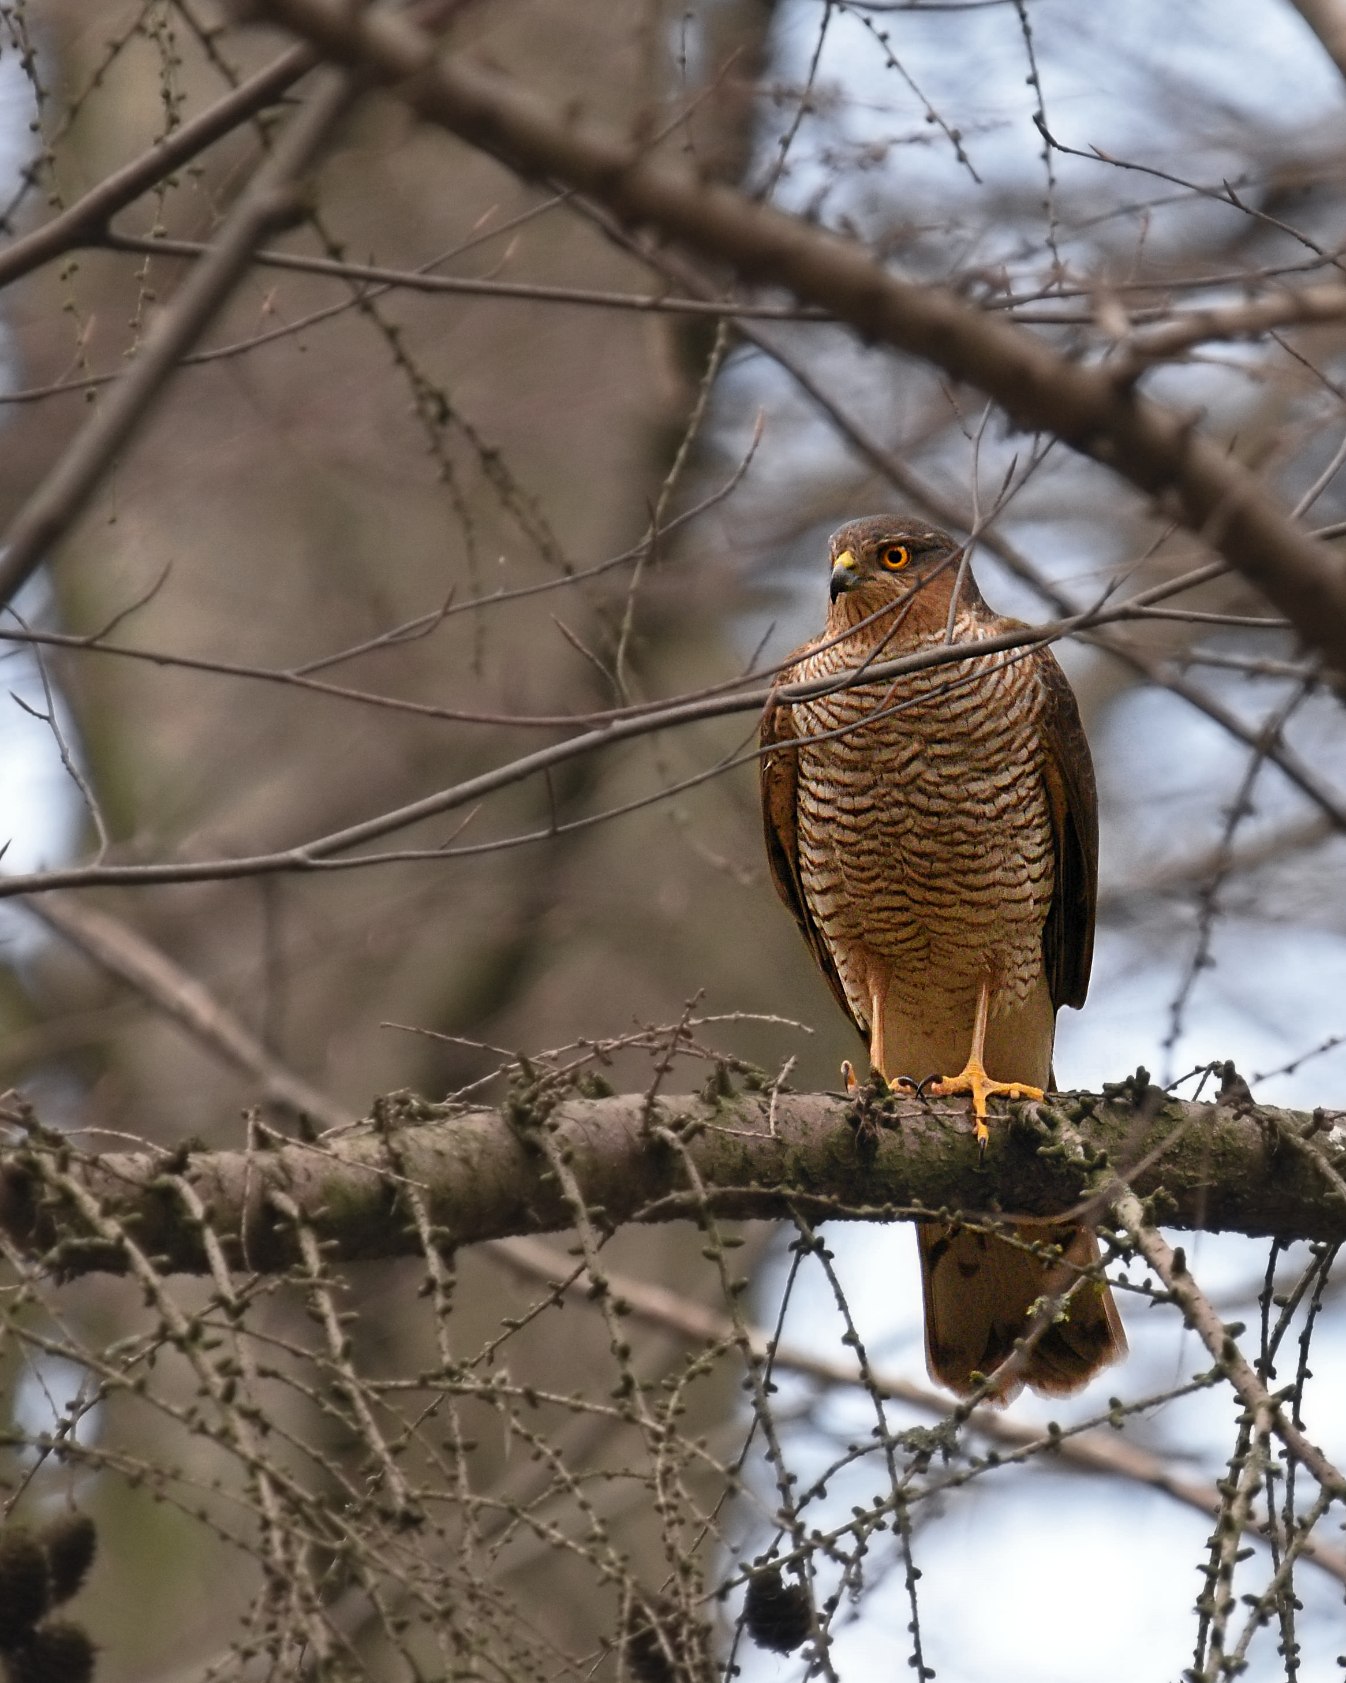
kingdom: Animalia
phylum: Chordata
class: Aves
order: Accipitriformes
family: Accipitridae
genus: Accipiter
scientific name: Accipiter nisus
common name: Spurvehøg
